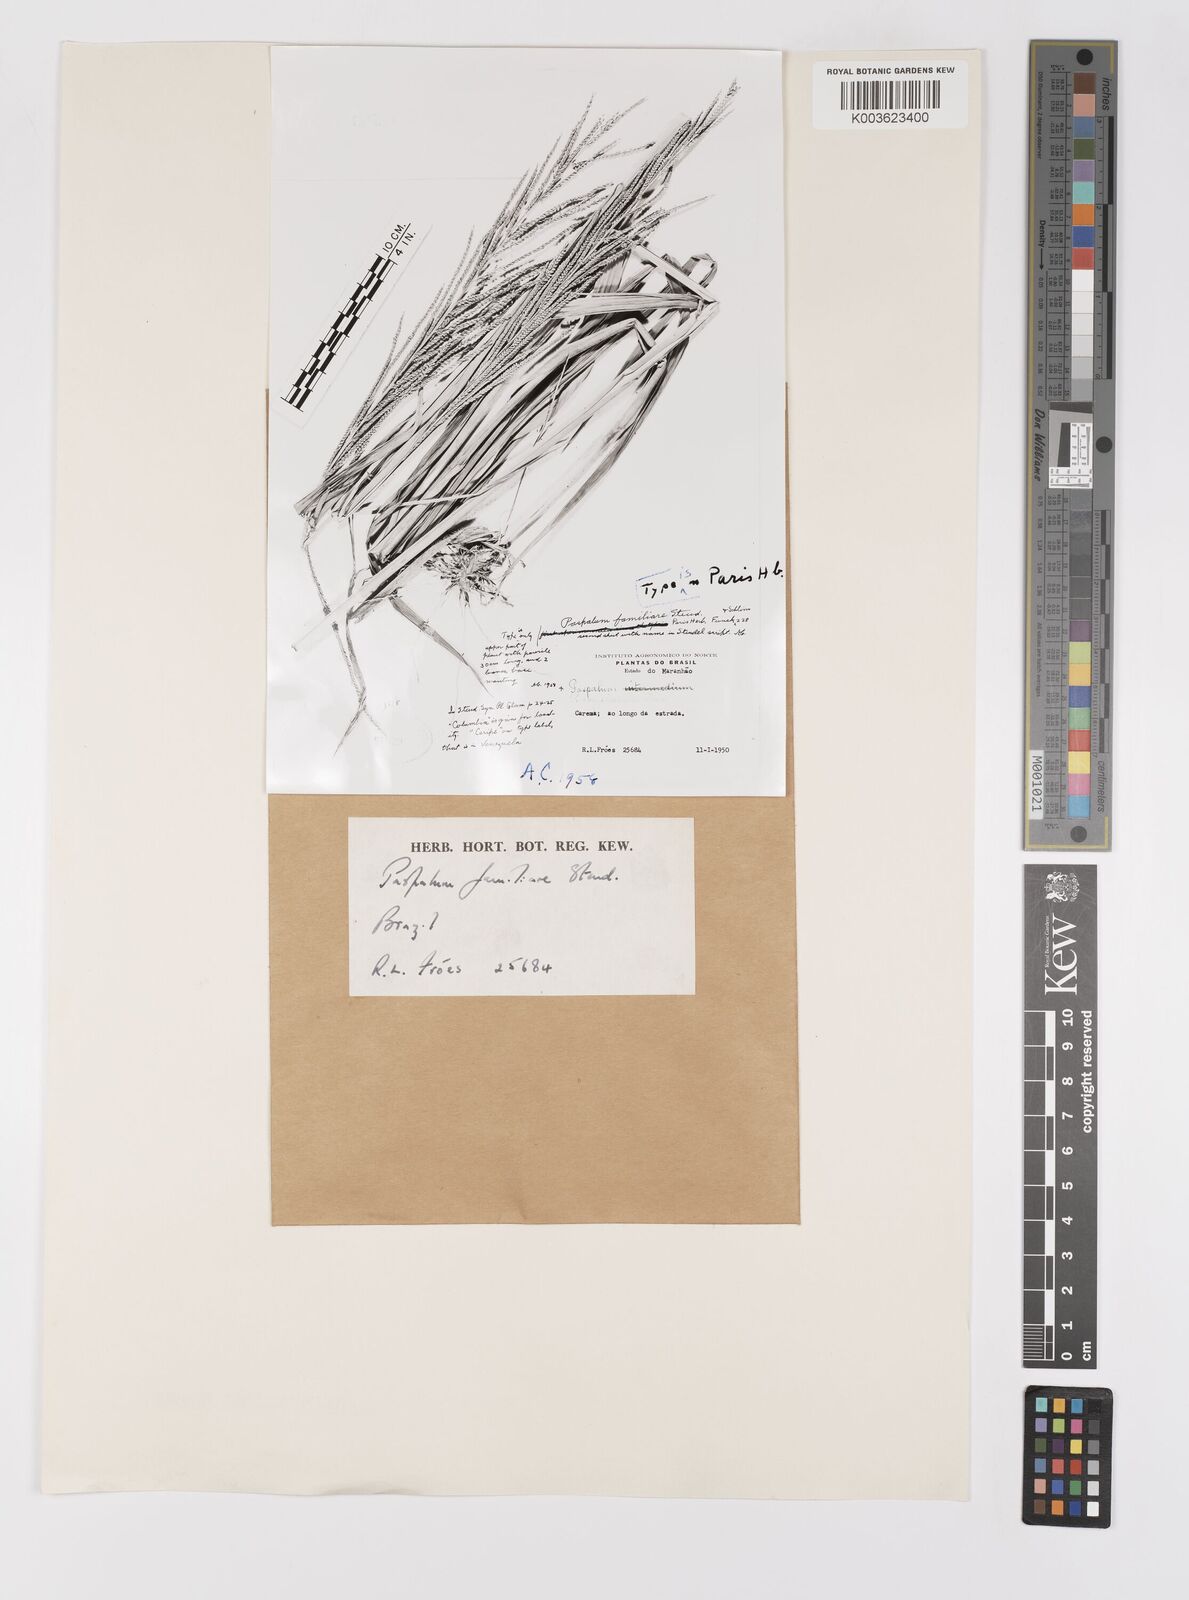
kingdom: Plantae
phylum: Tracheophyta
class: Liliopsida
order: Poales
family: Poaceae
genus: Paspalum
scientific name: Paspalum coryphaeum
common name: Emperor crowngrass
